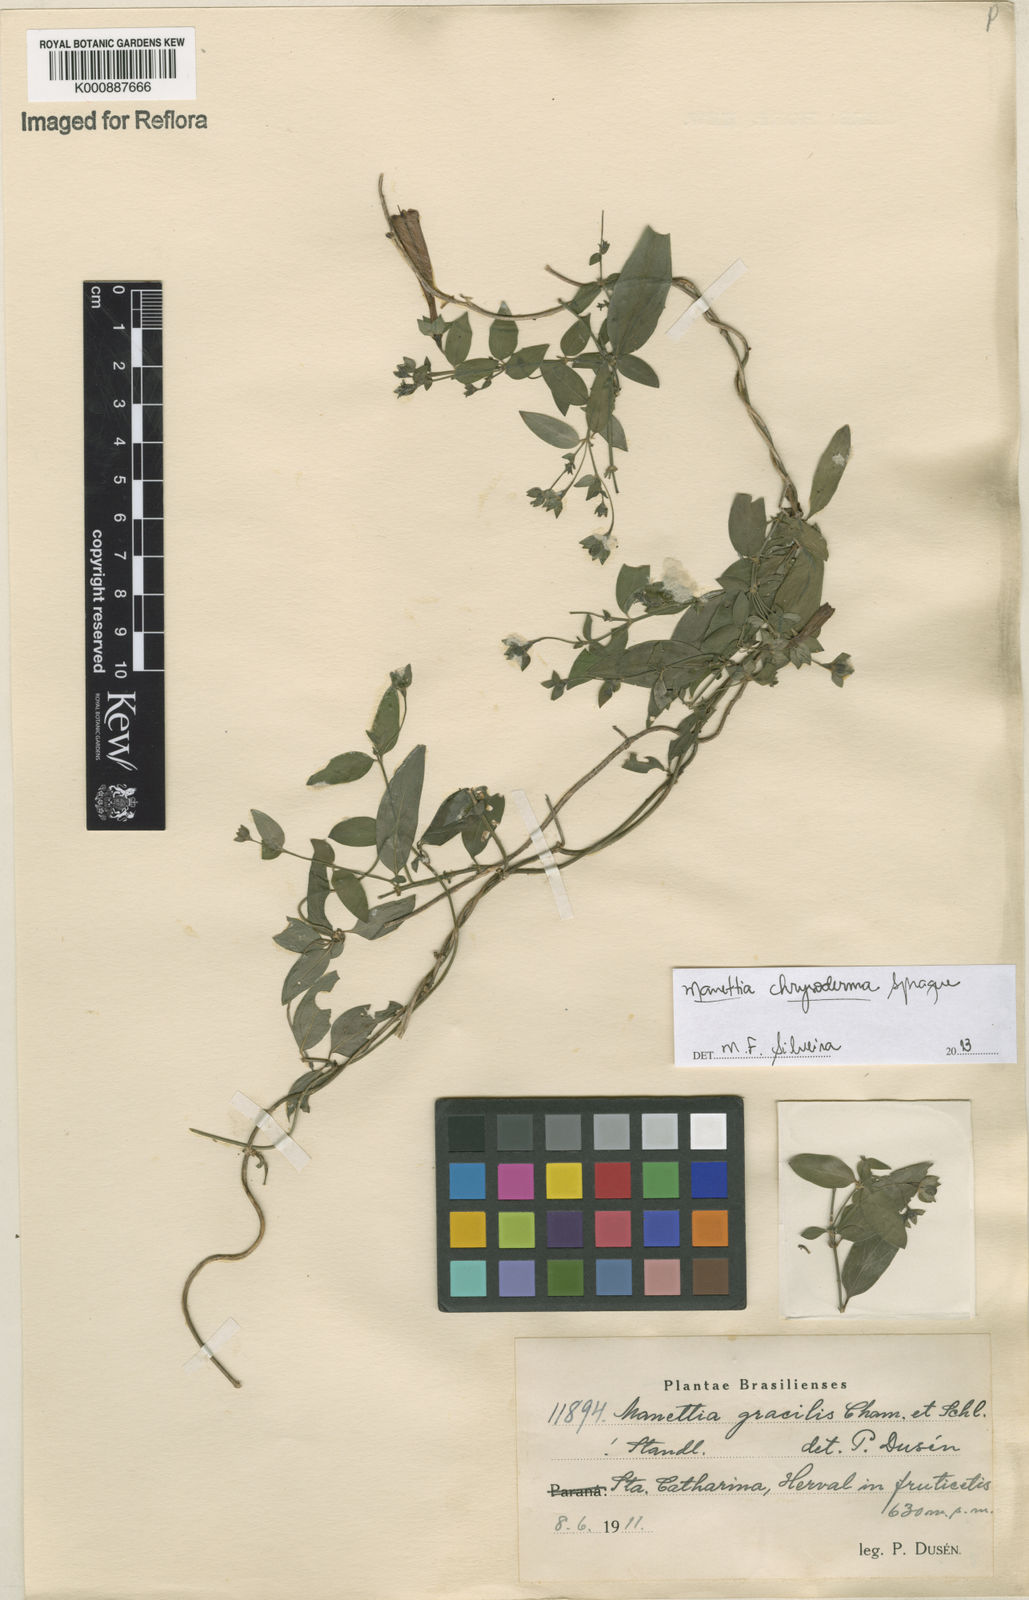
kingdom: Plantae
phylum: Tracheophyta
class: Magnoliopsida
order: Gentianales
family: Rubiaceae
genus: Manettia
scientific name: Manettia chrysoderma
